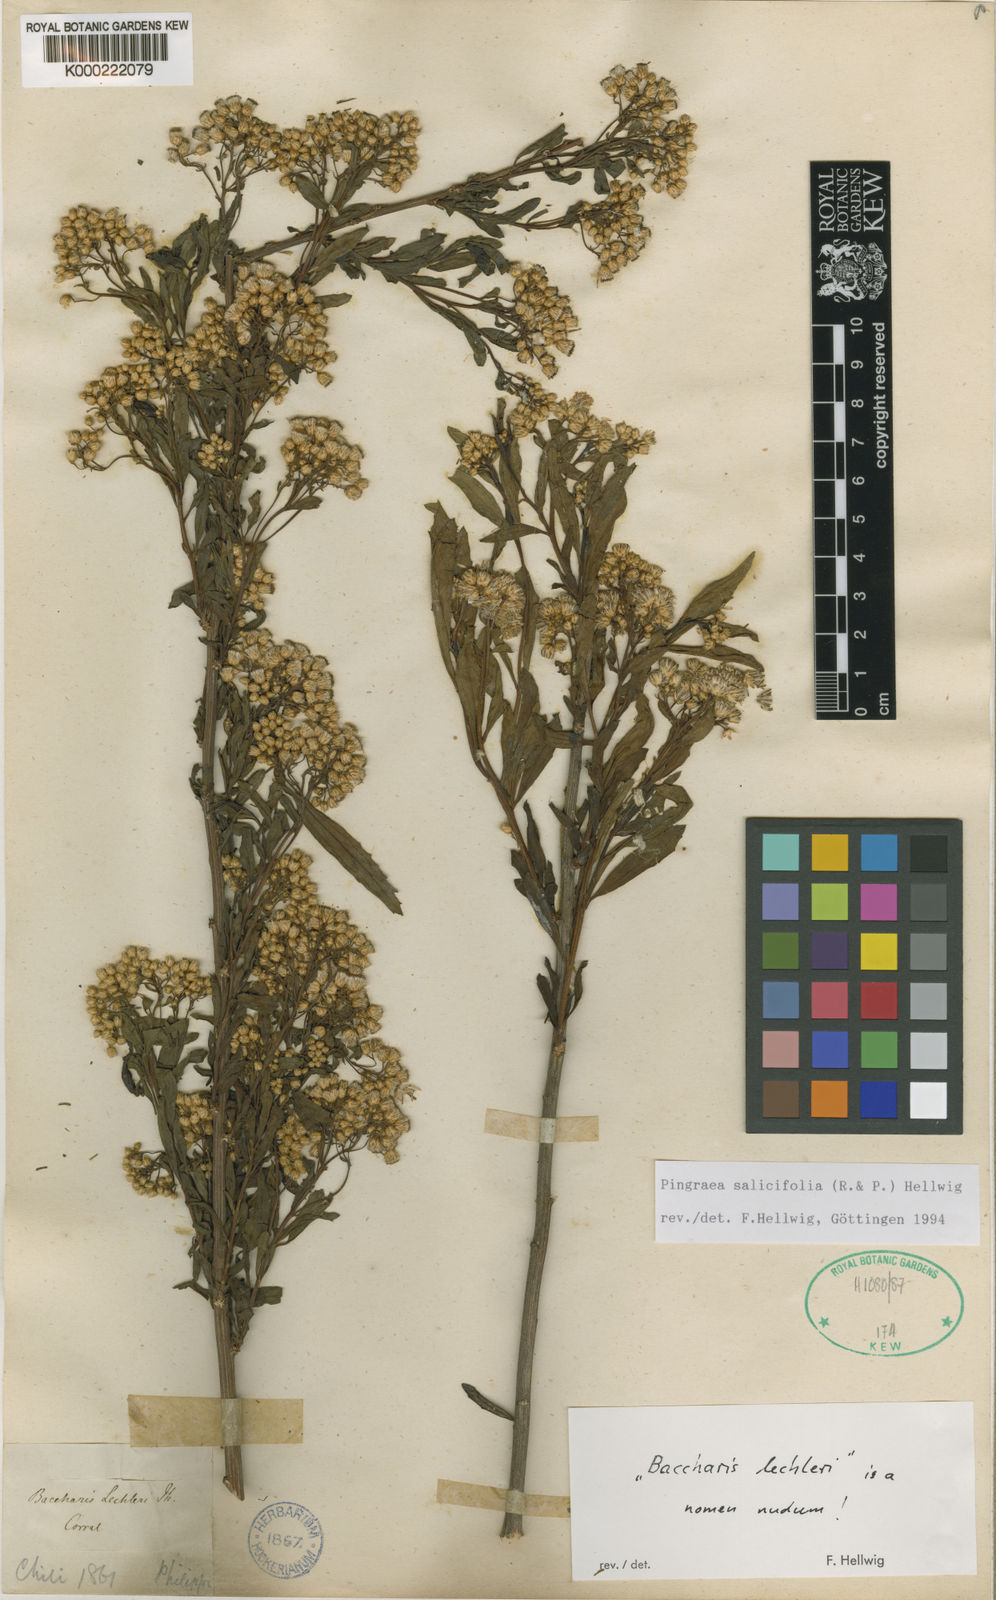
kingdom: Plantae
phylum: Tracheophyta
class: Magnoliopsida
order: Asterales
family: Asteraceae
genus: Baccharis
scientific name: Baccharis salicifolia
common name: Sticky baccharis
